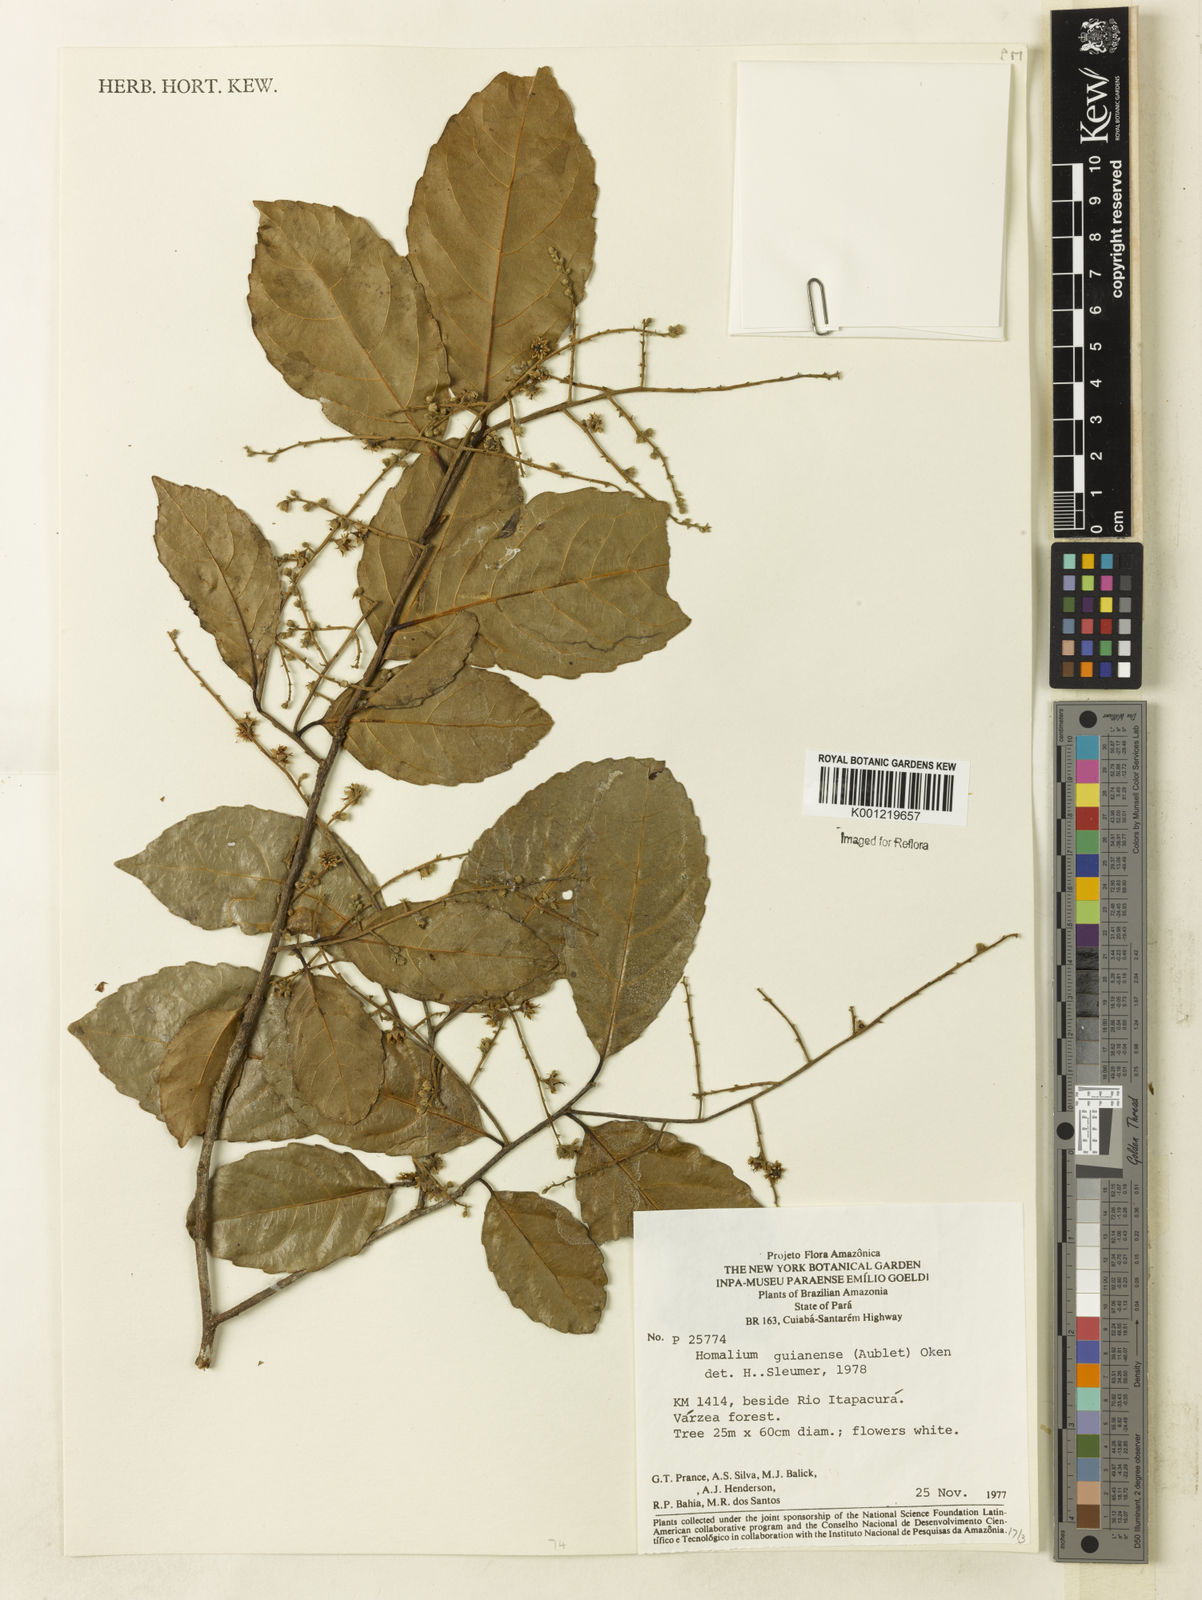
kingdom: Plantae
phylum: Tracheophyta
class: Magnoliopsida
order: Malpighiales
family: Salicaceae
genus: Homalium
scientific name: Homalium guianense
